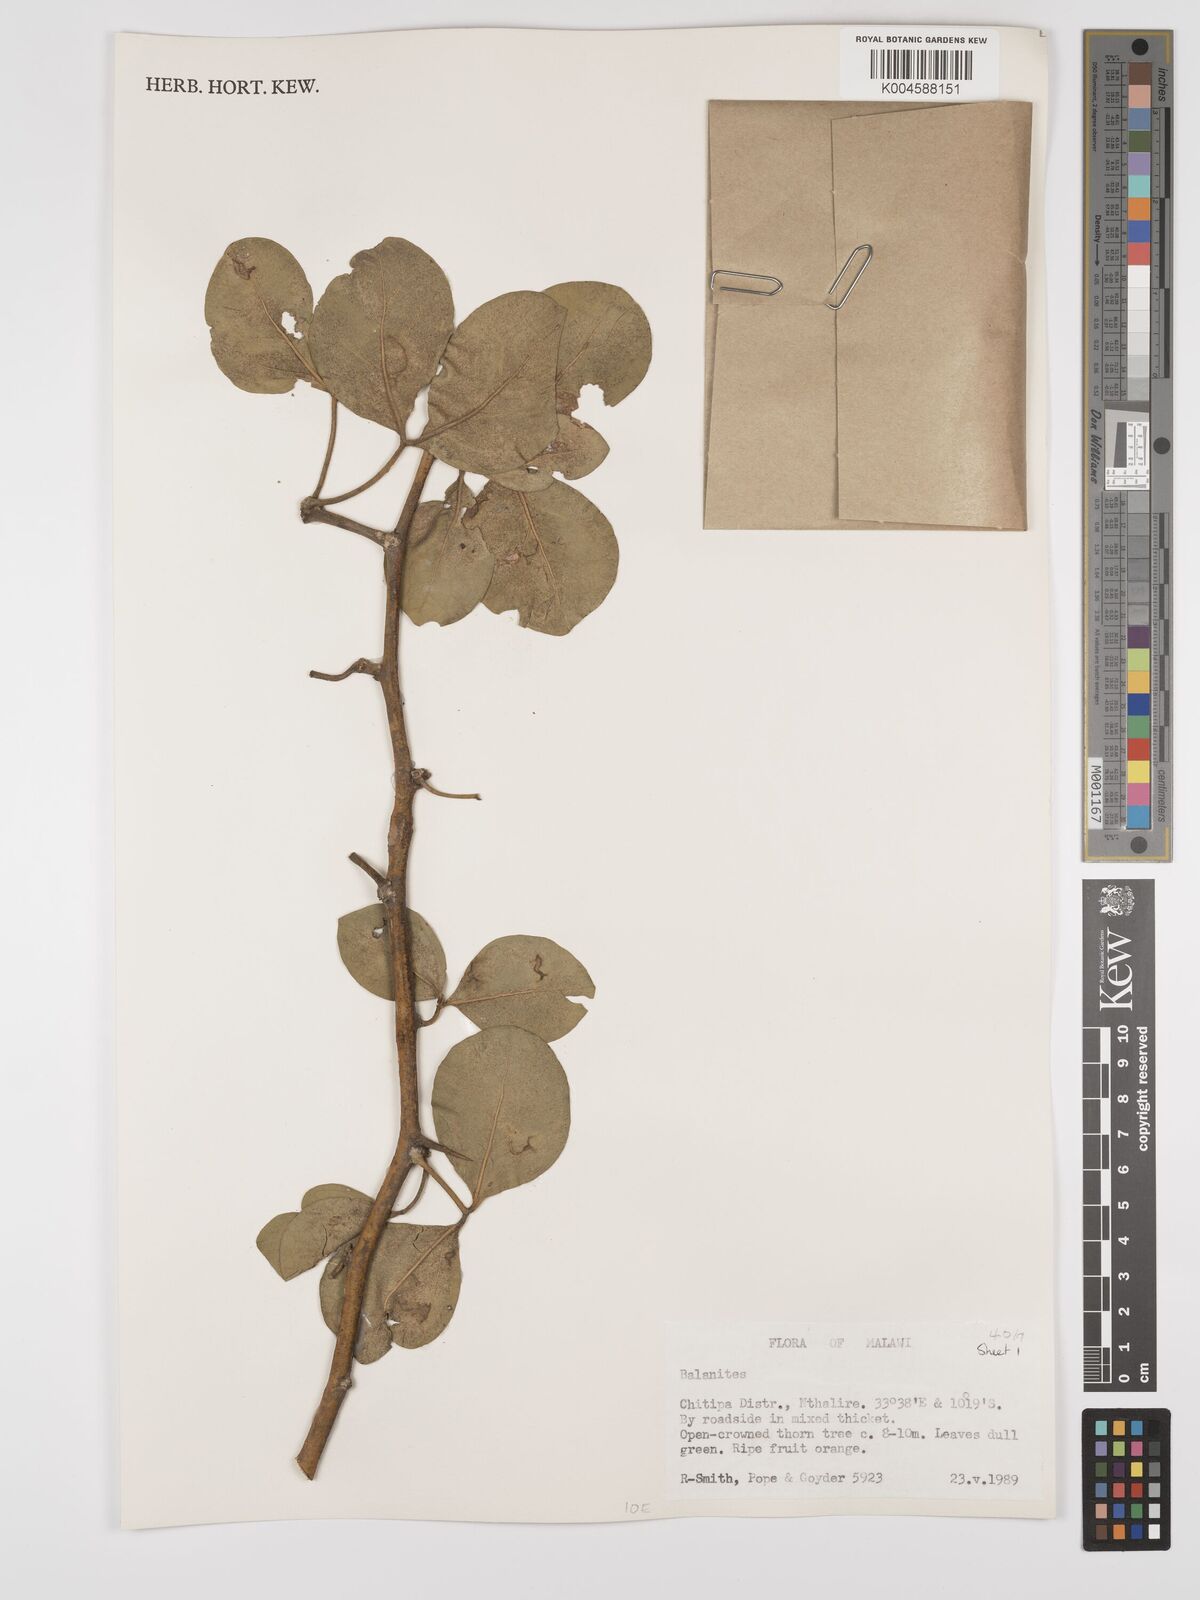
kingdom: Plantae
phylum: Tracheophyta
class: Magnoliopsida
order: Zygophyllales
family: Zygophyllaceae
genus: Balanites
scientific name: Balanites
